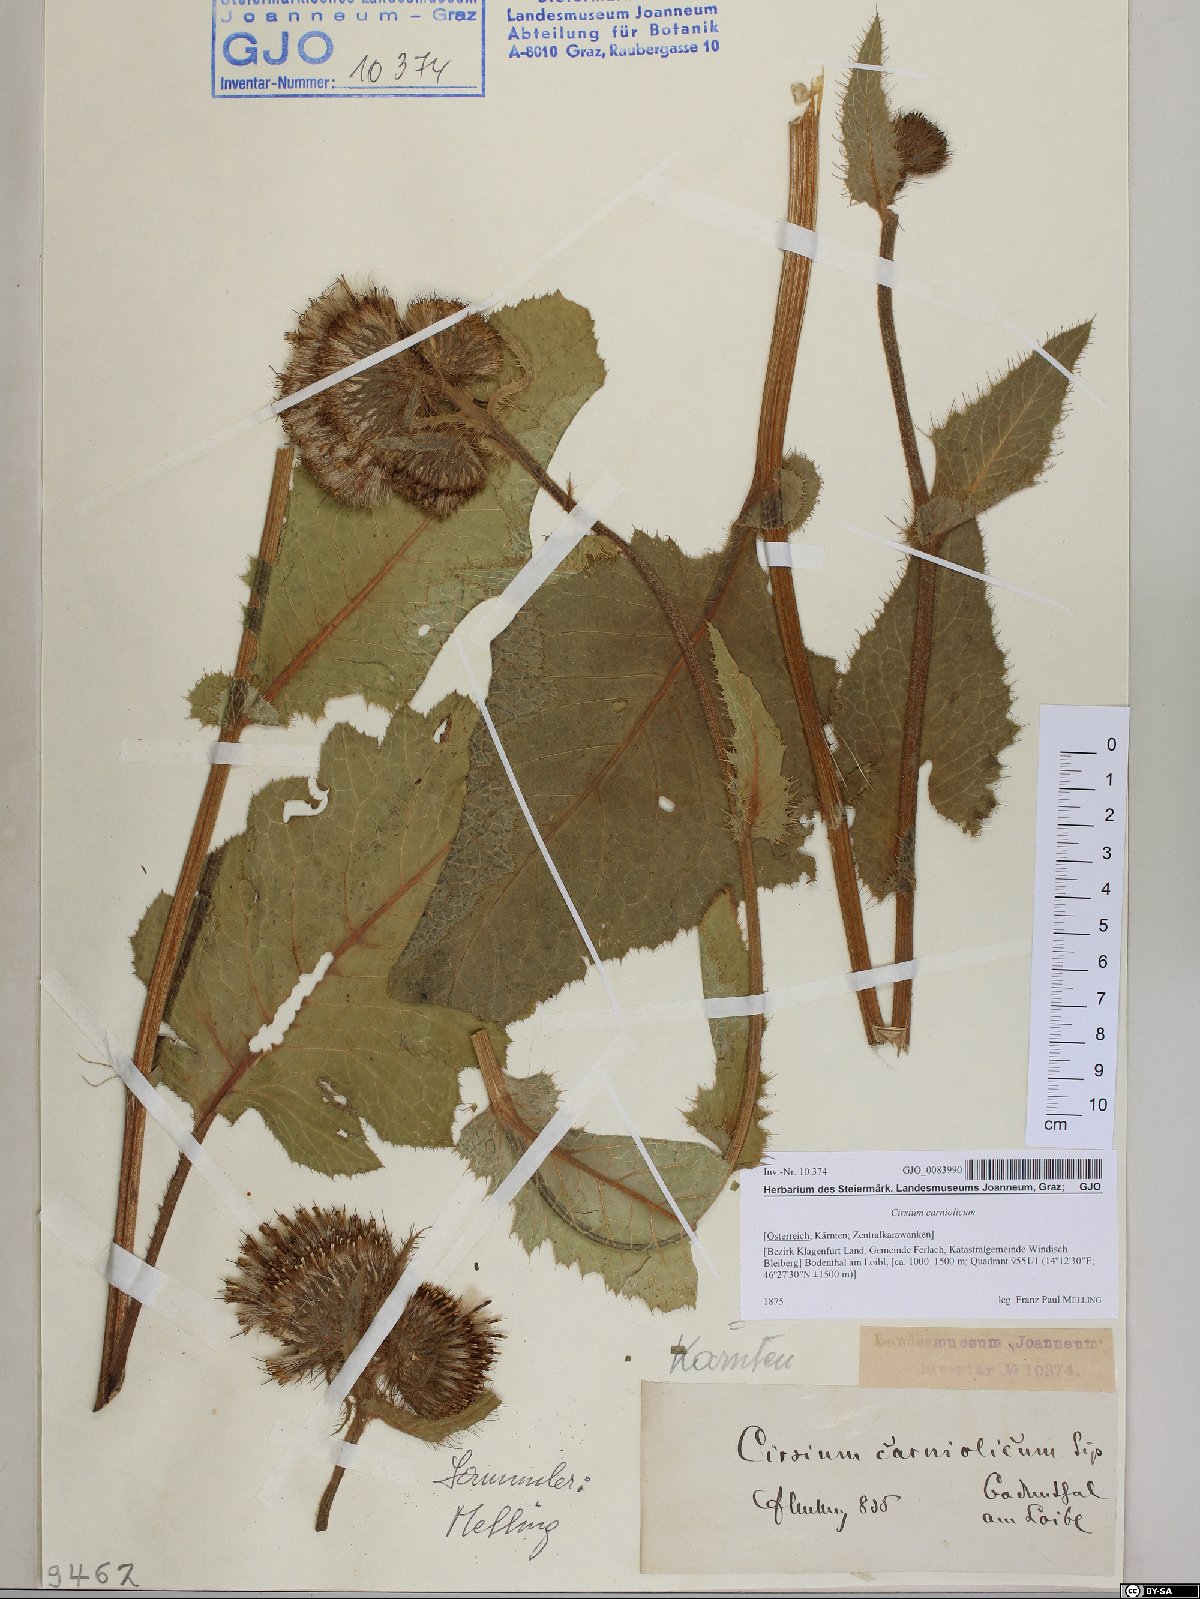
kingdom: Plantae
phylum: Tracheophyta
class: Magnoliopsida
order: Asterales
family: Asteraceae
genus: Cirsium
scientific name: Cirsium carniolicum
